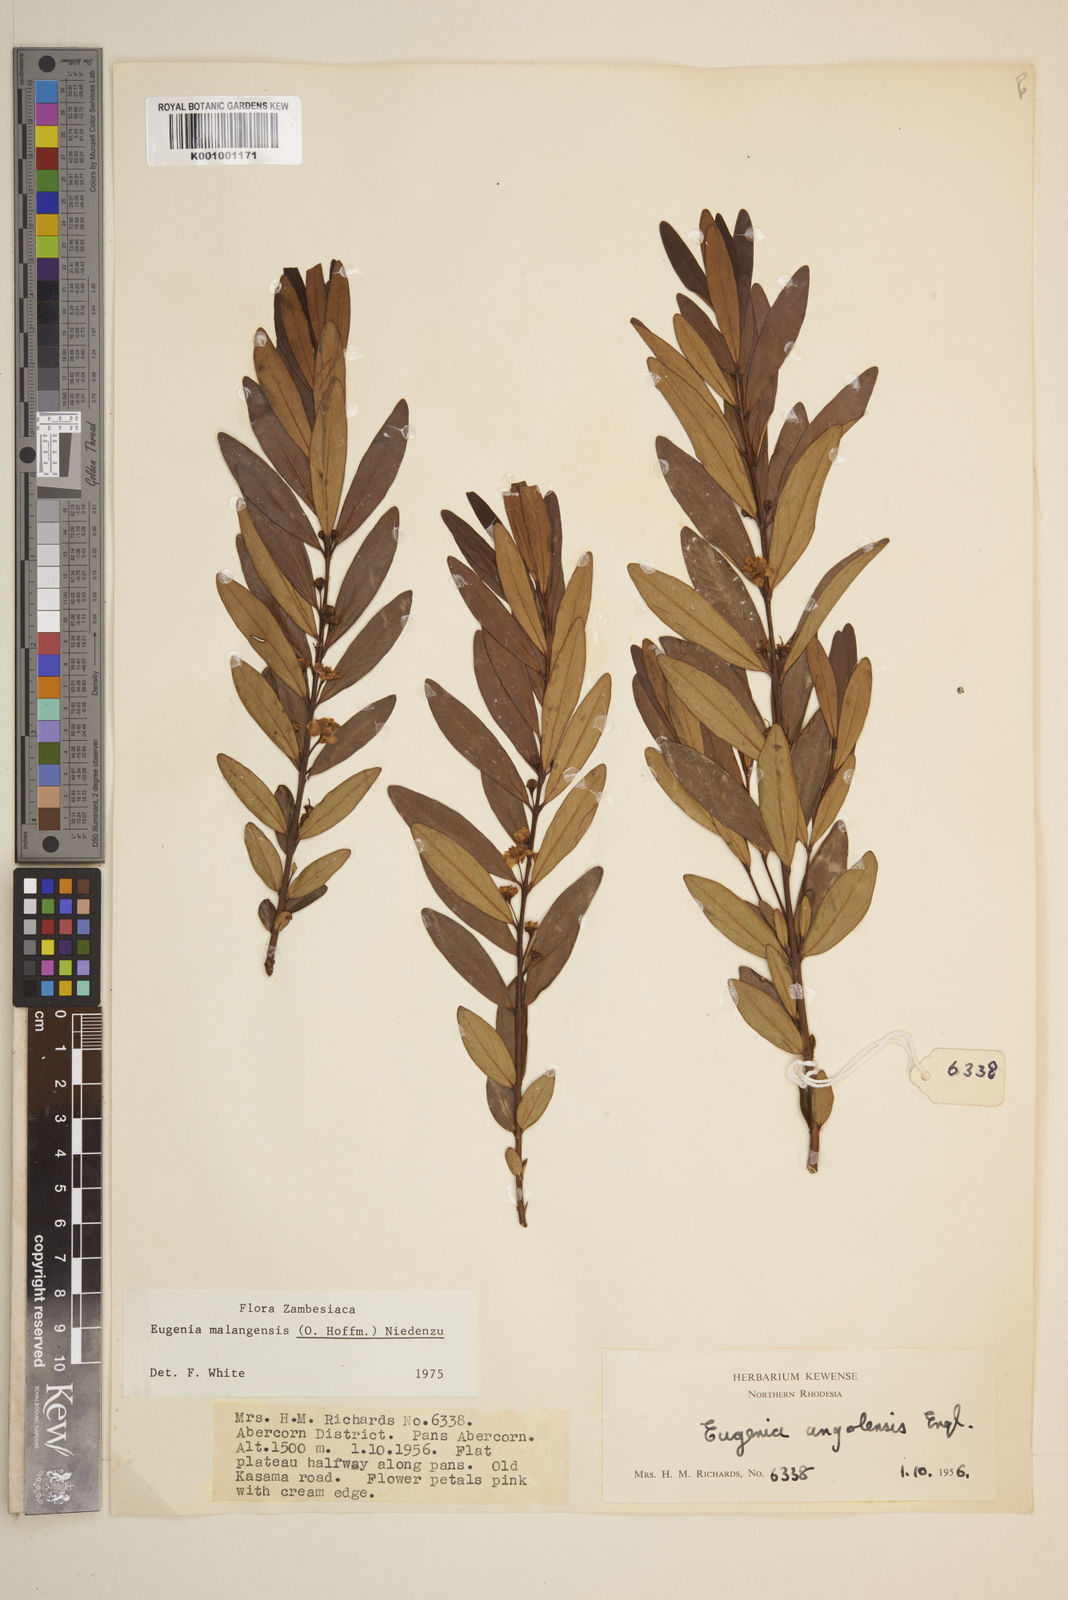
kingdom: Plantae
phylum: Tracheophyta
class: Magnoliopsida
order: Myrtales
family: Myrtaceae
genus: Eugenia
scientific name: Eugenia malangensis
